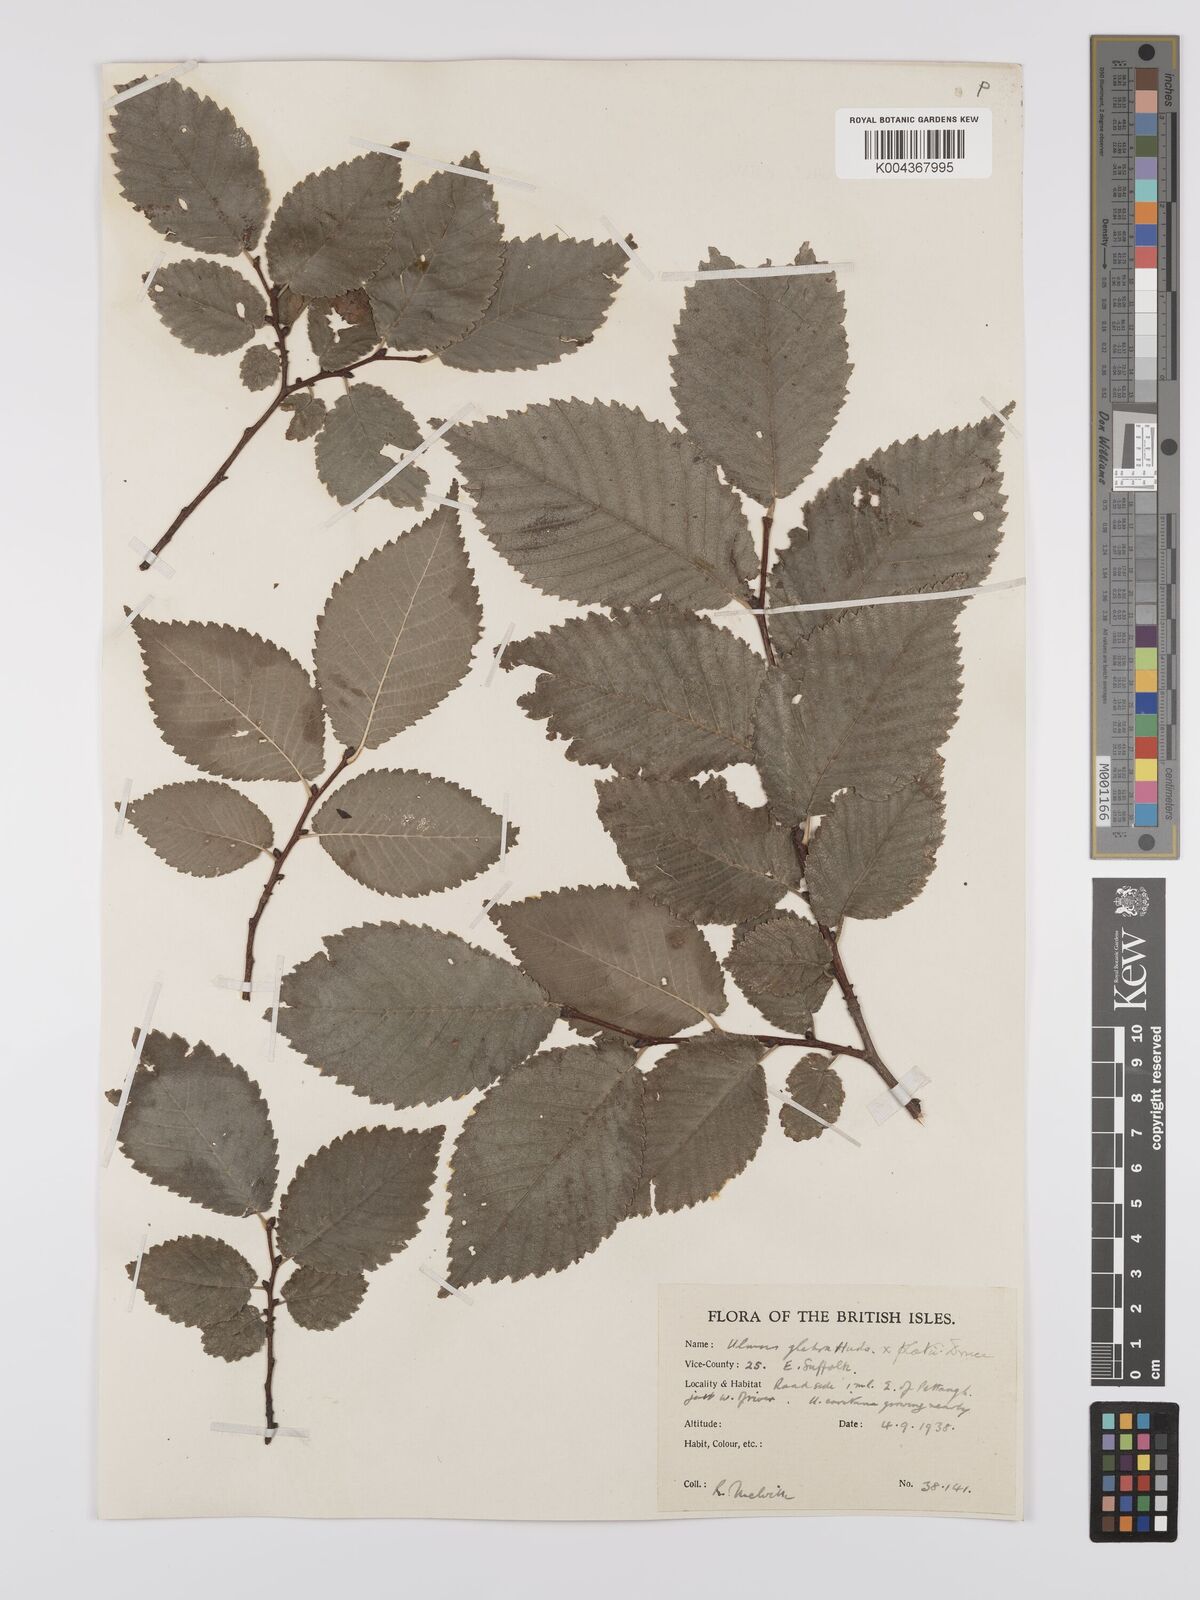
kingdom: Plantae
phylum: Tracheophyta
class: Magnoliopsida
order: Rosales
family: Ulmaceae
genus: Ulmus
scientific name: Ulmus
